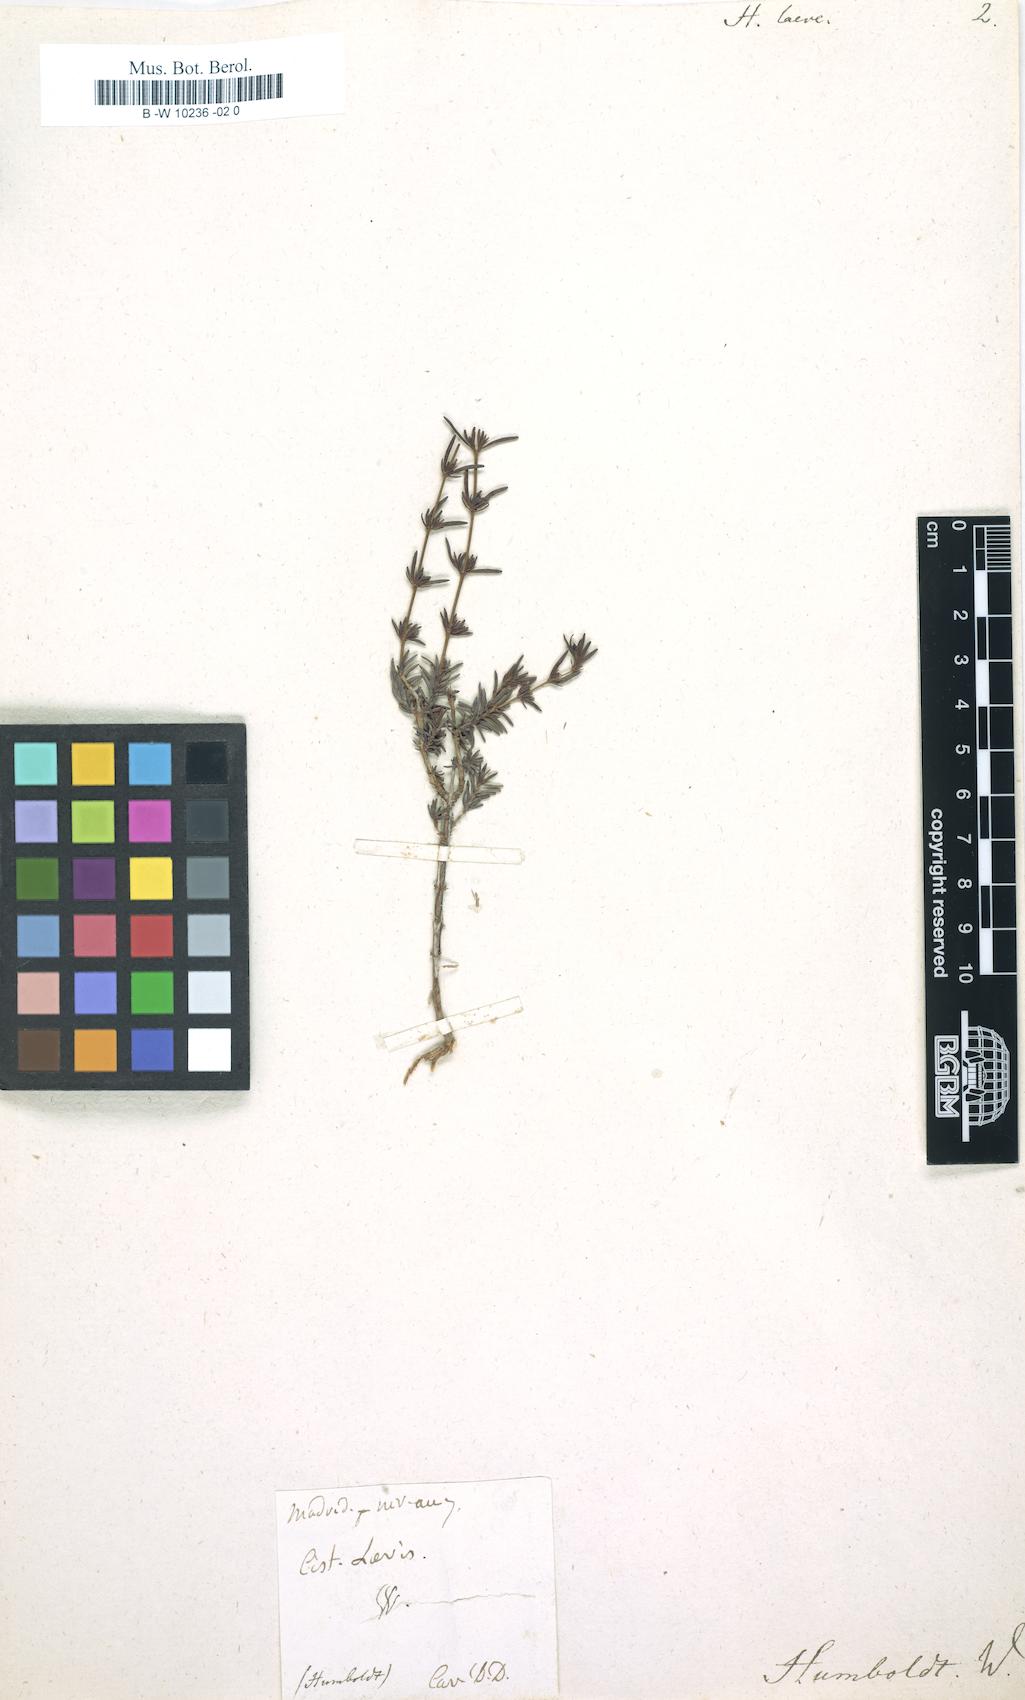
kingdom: Plantae
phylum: Tracheophyta
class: Magnoliopsida
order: Malvales
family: Cistaceae
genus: Fumana
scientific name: Fumana laevis
